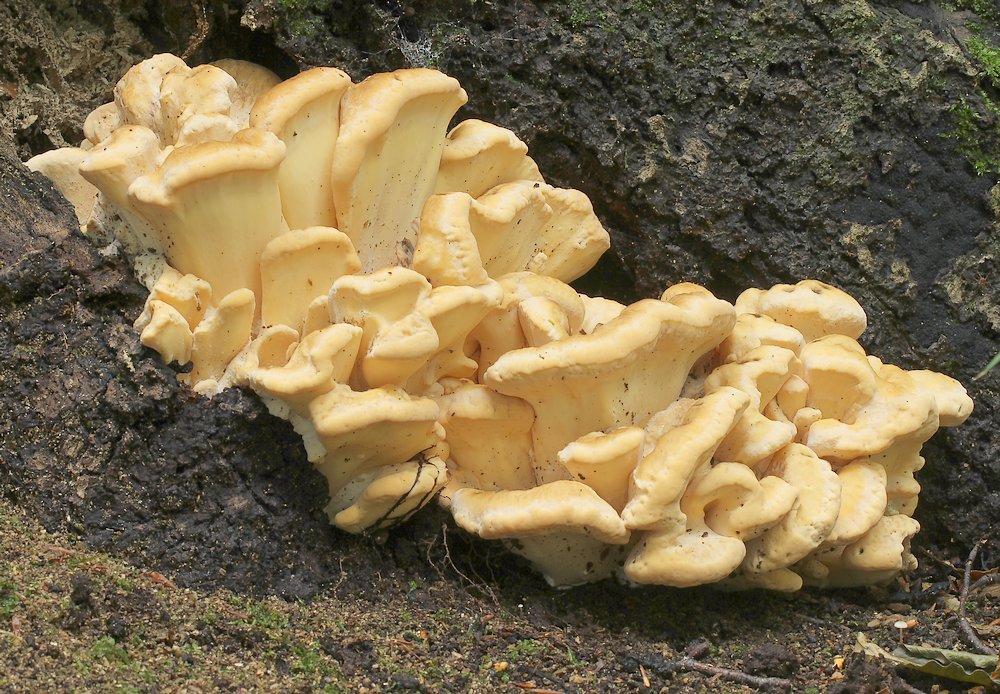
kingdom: Fungi
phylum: Basidiomycota
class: Agaricomycetes
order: Polyporales
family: Meripilaceae
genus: Meripilus
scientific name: Meripilus giganteus
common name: kæmpeporesvamp
